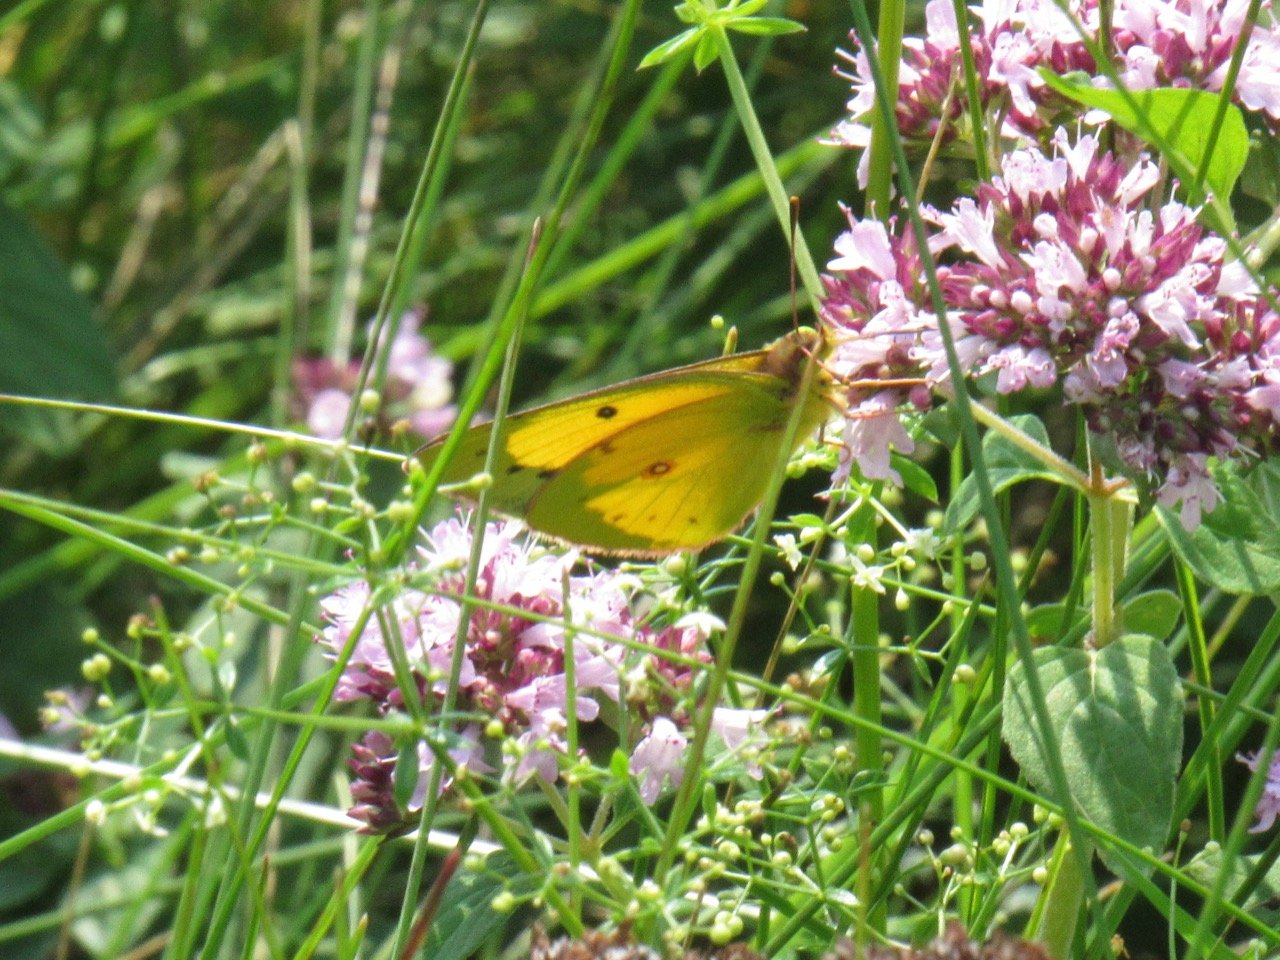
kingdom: Animalia
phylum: Arthropoda
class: Insecta
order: Lepidoptera
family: Pieridae
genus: Colias
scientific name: Colias eurytheme
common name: Orange Sulphur
